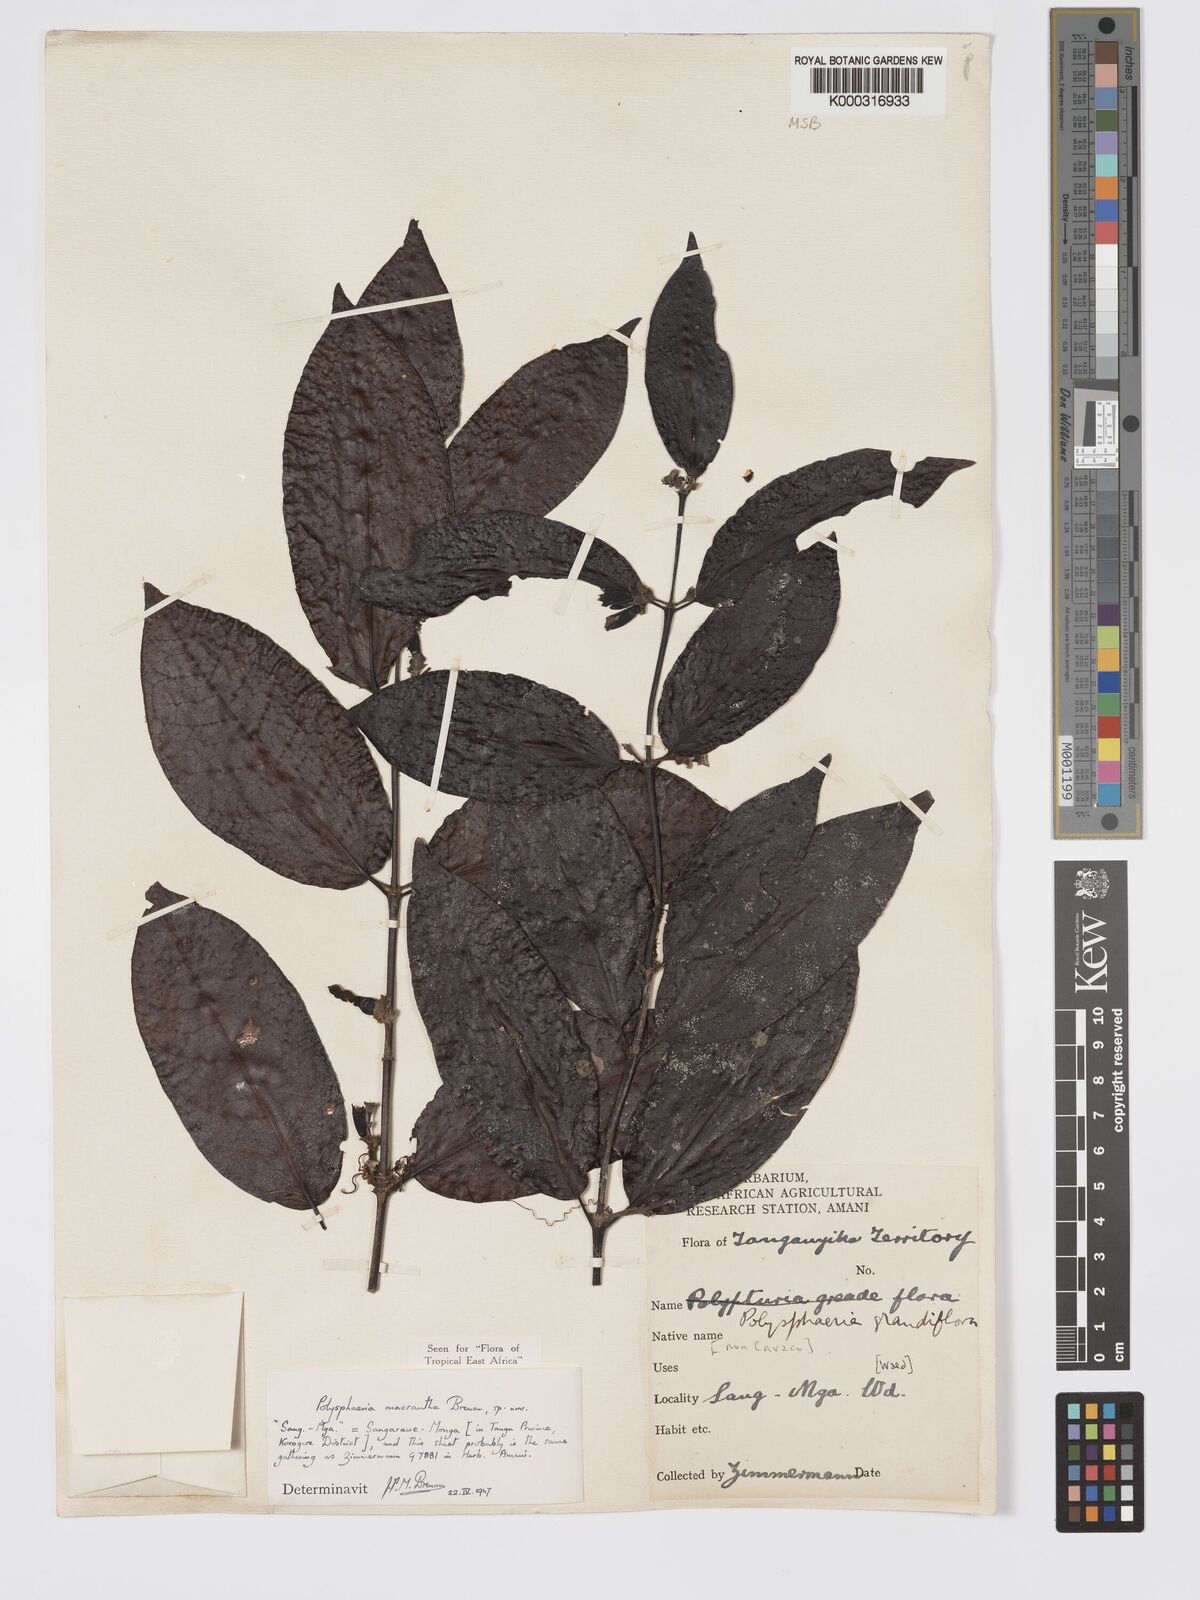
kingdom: Plantae
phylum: Tracheophyta
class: Magnoliopsida
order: Gentianales
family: Rubiaceae
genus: Polysphaeria
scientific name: Polysphaeria macrantha
